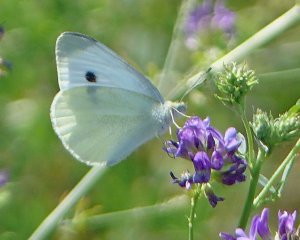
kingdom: Animalia
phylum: Arthropoda
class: Insecta
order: Lepidoptera
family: Pieridae
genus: Pieris
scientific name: Pieris rapae
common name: Cabbage White
